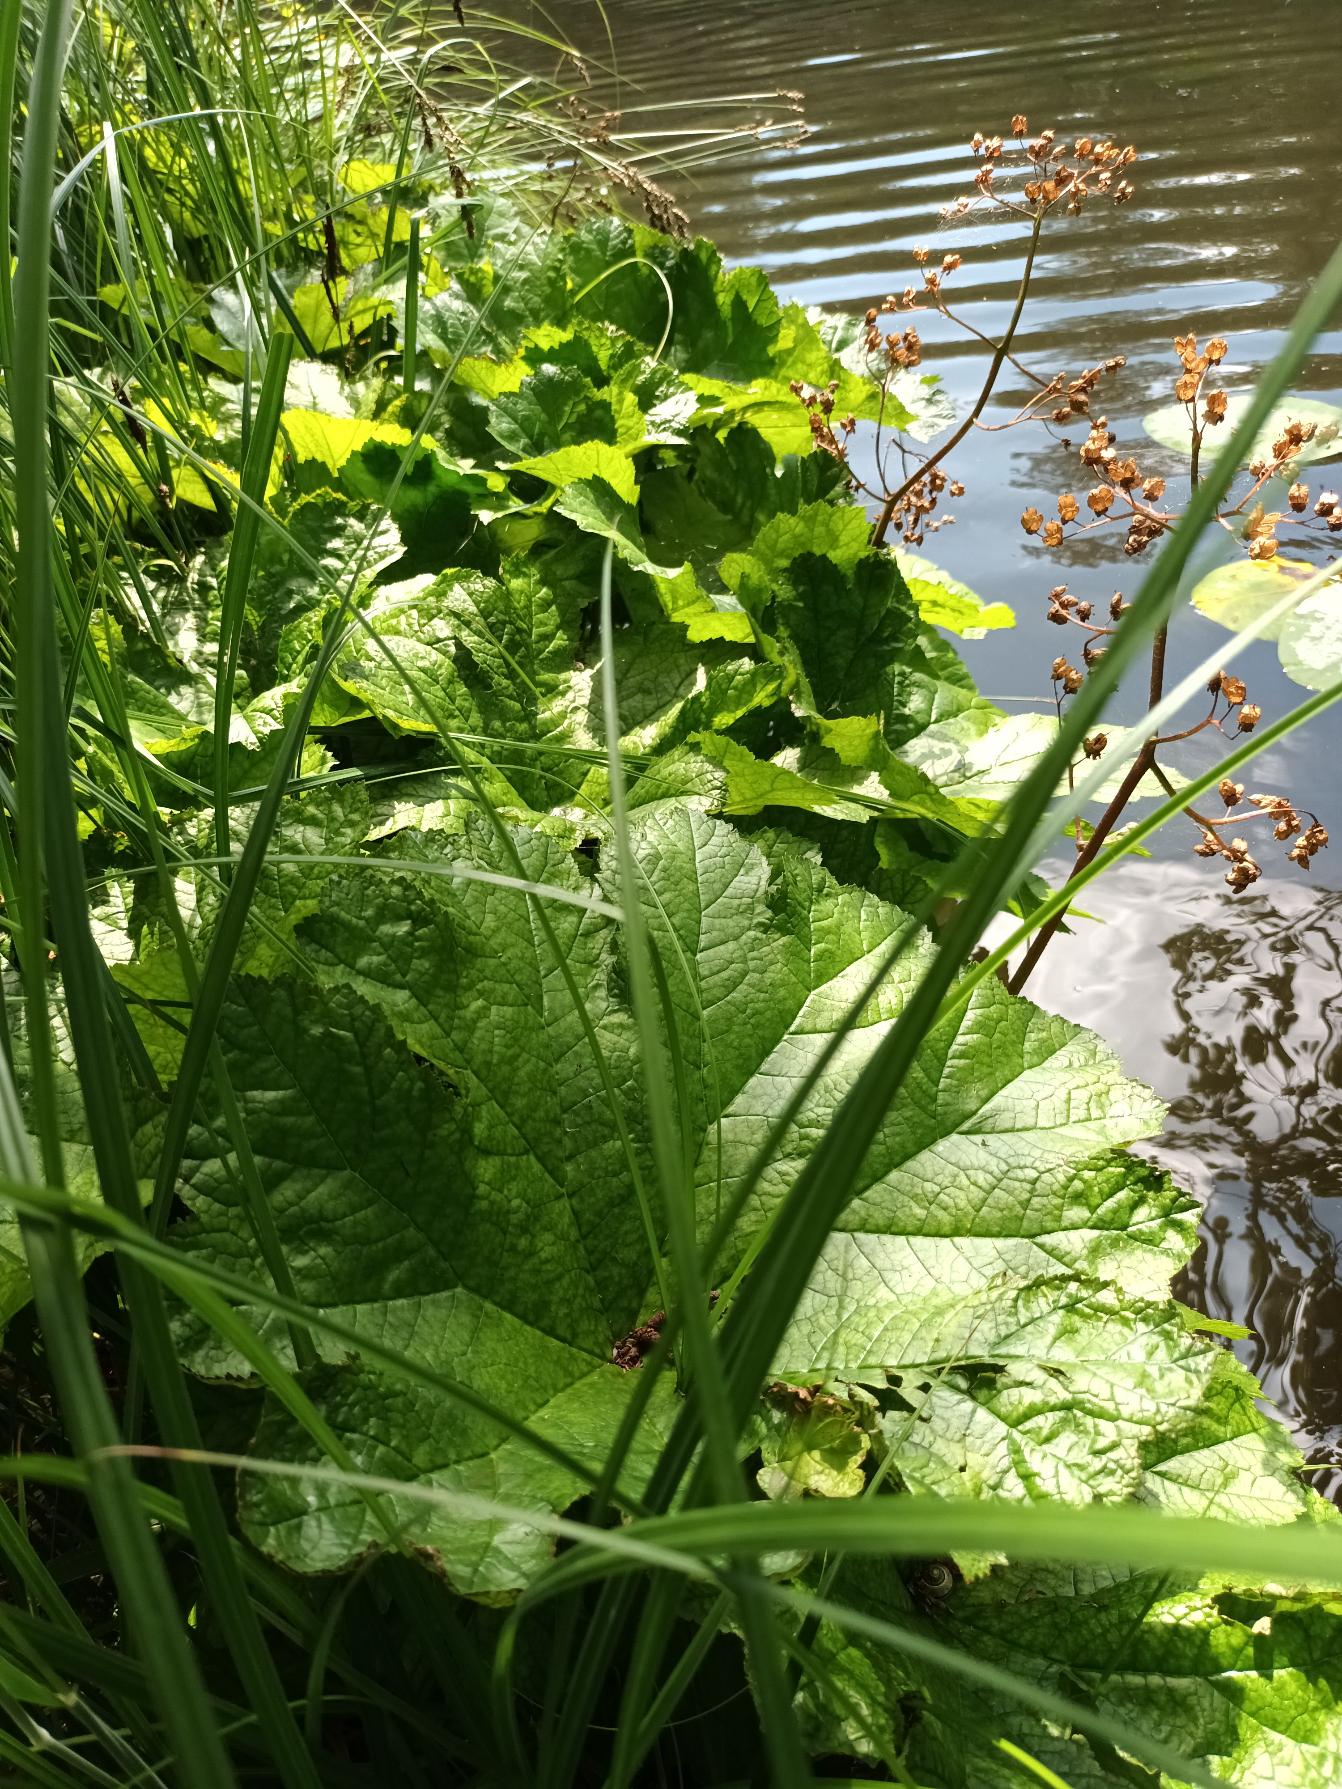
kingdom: Plantae
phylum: Tracheophyta
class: Magnoliopsida
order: Saxifragales
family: Saxifragaceae
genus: Darmera
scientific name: Darmera peltata
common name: Skjoldblad
